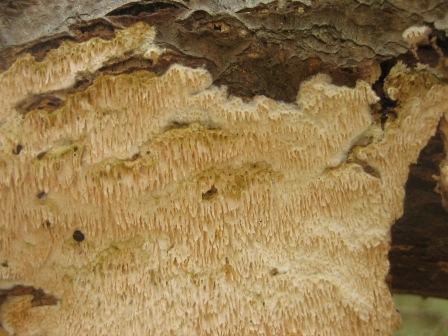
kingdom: Fungi
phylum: Basidiomycota
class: Agaricomycetes
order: Hymenochaetales
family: Hyphodontiaceae
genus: Hyphodontia
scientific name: Hyphodontia quercina
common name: ege-tandsvamp
